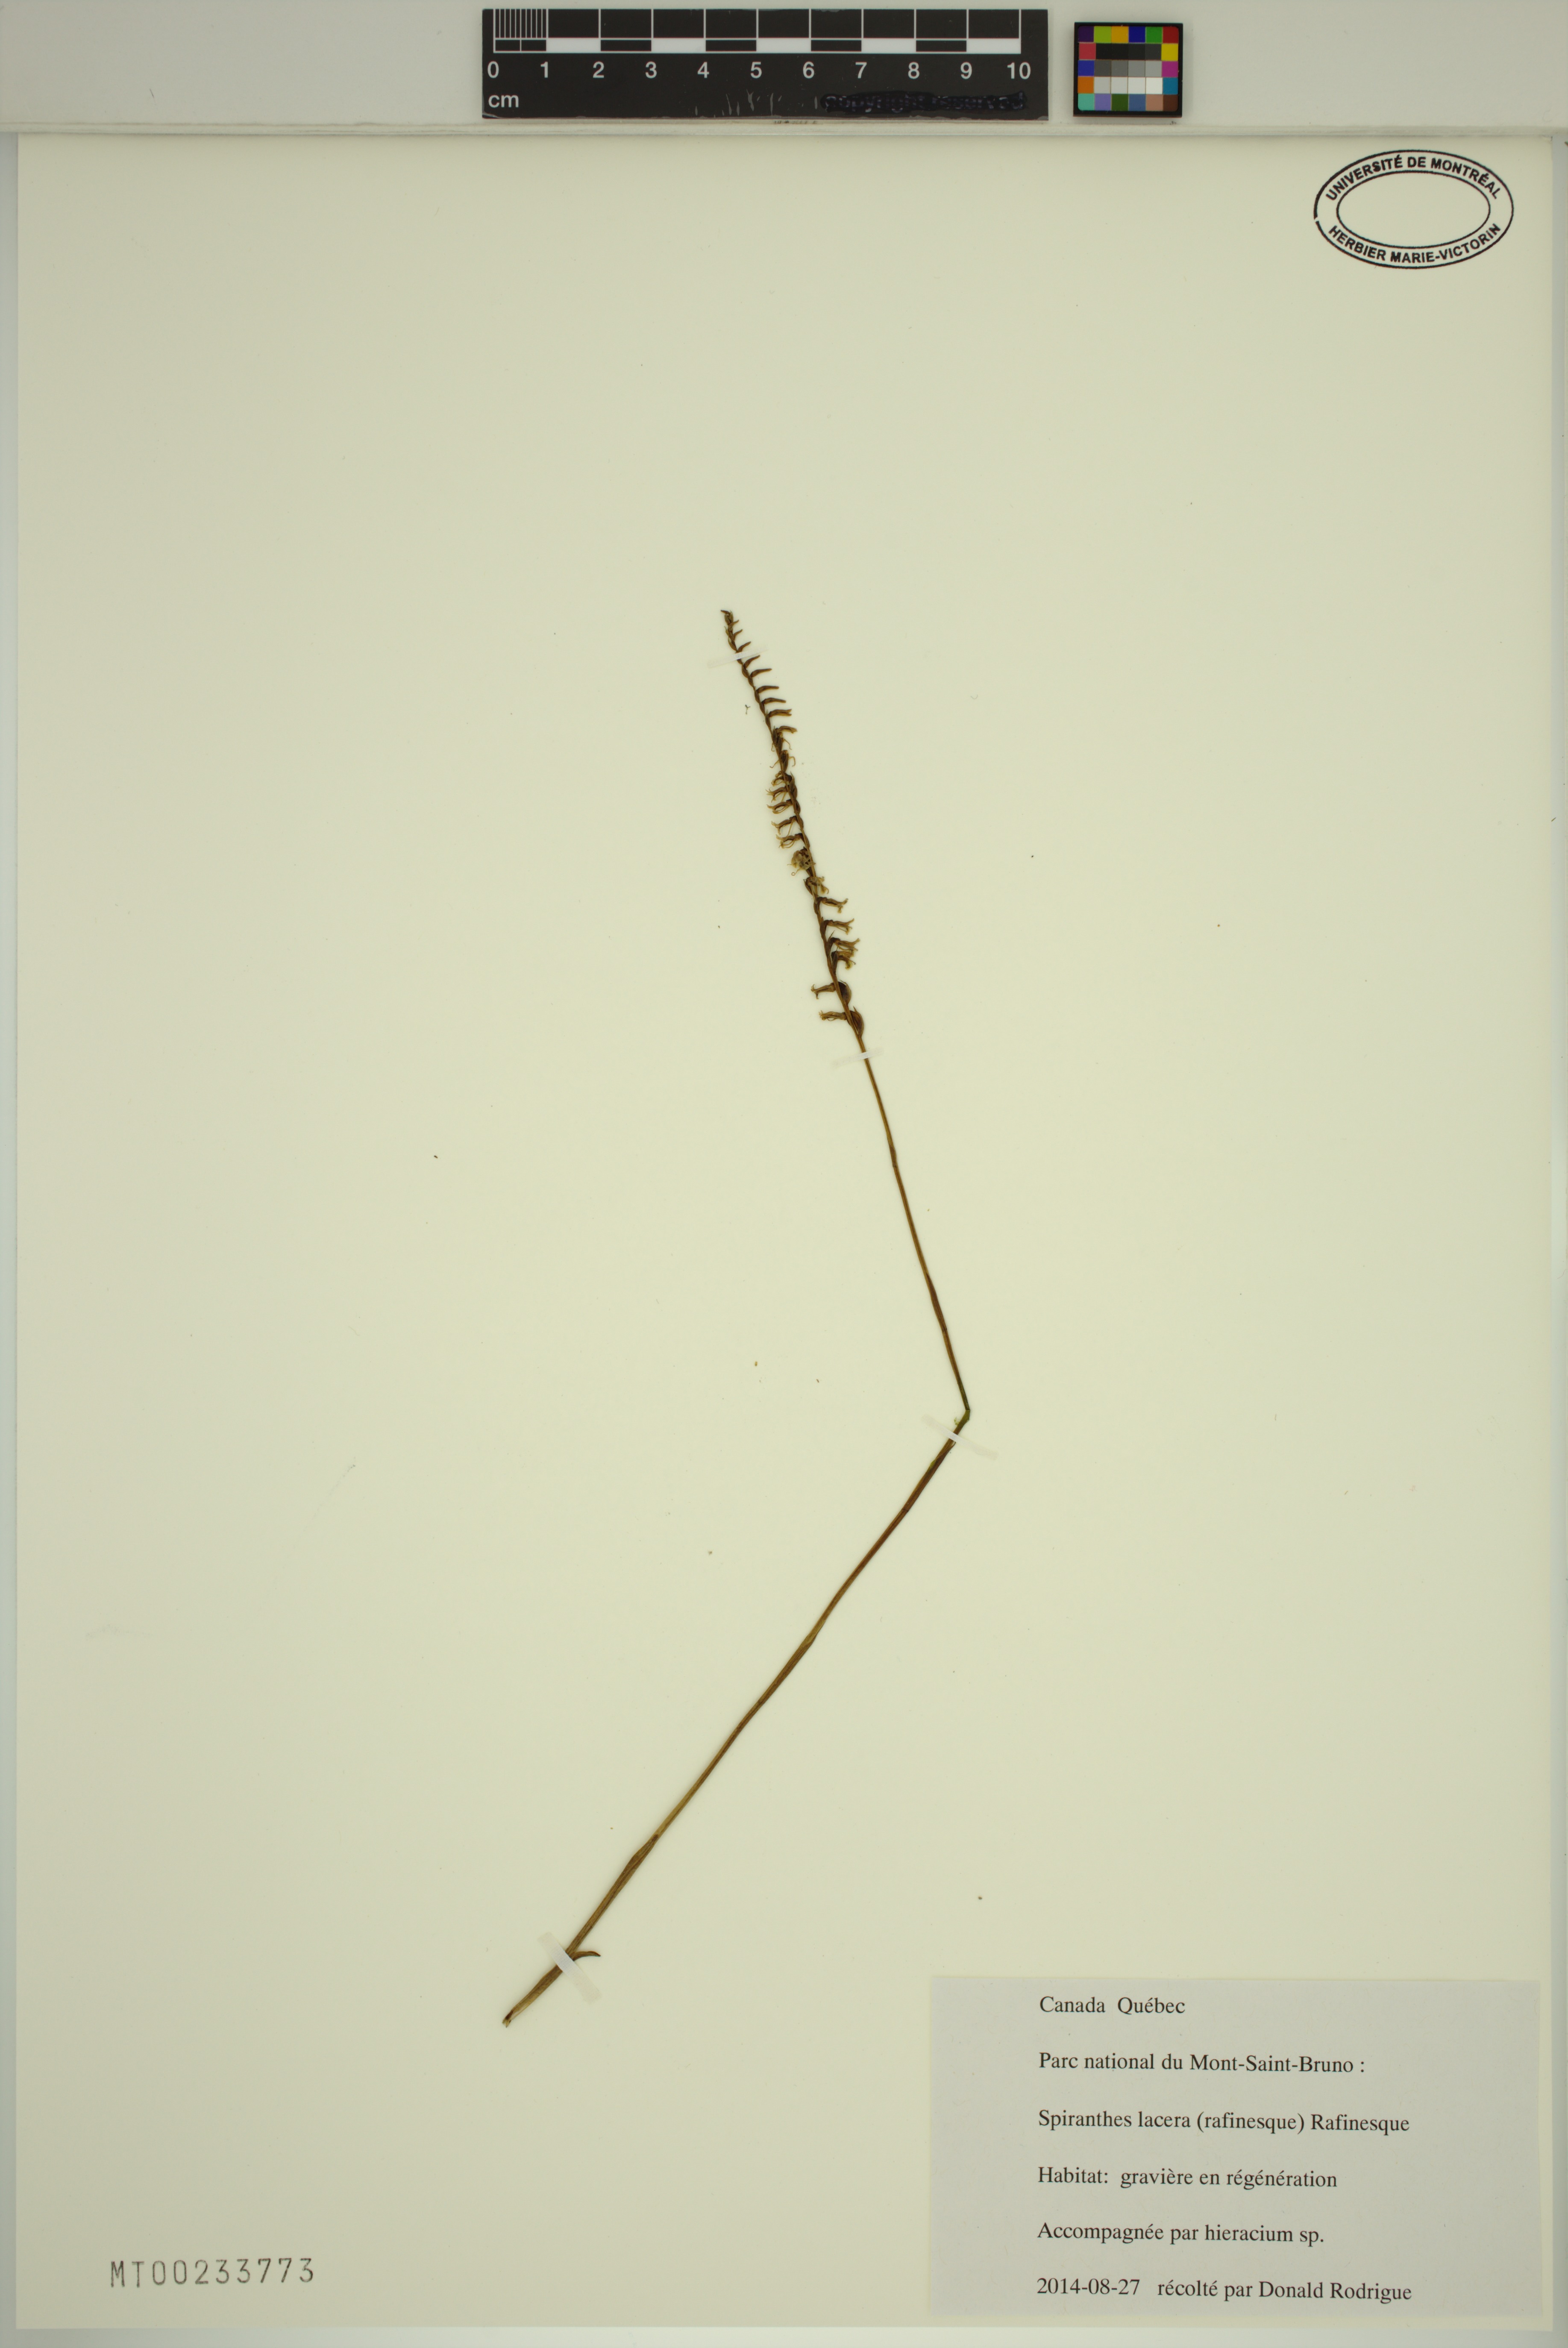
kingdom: Plantae
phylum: Tracheophyta
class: Liliopsida
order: Asparagales
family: Orchidaceae
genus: Spiranthes
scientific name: Spiranthes lacera
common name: Northern slender ladies'-tresses
